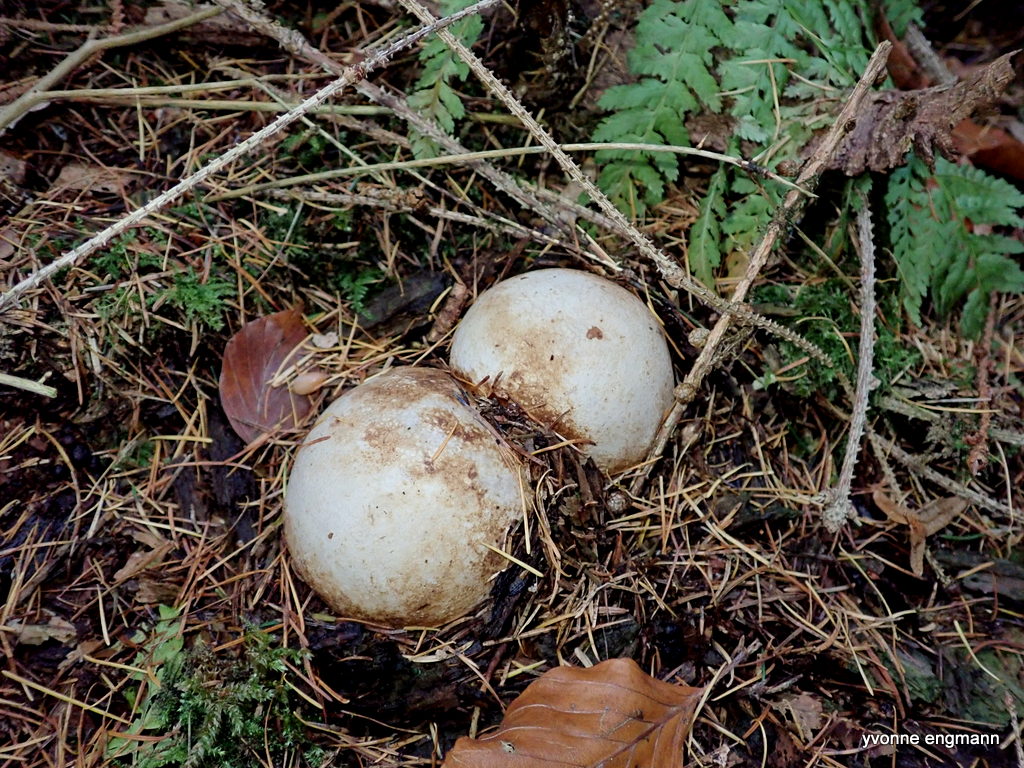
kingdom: Fungi
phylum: Basidiomycota
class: Agaricomycetes
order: Phallales
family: Phallaceae
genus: Phallus
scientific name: Phallus impudicus
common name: almindelig stinksvamp
